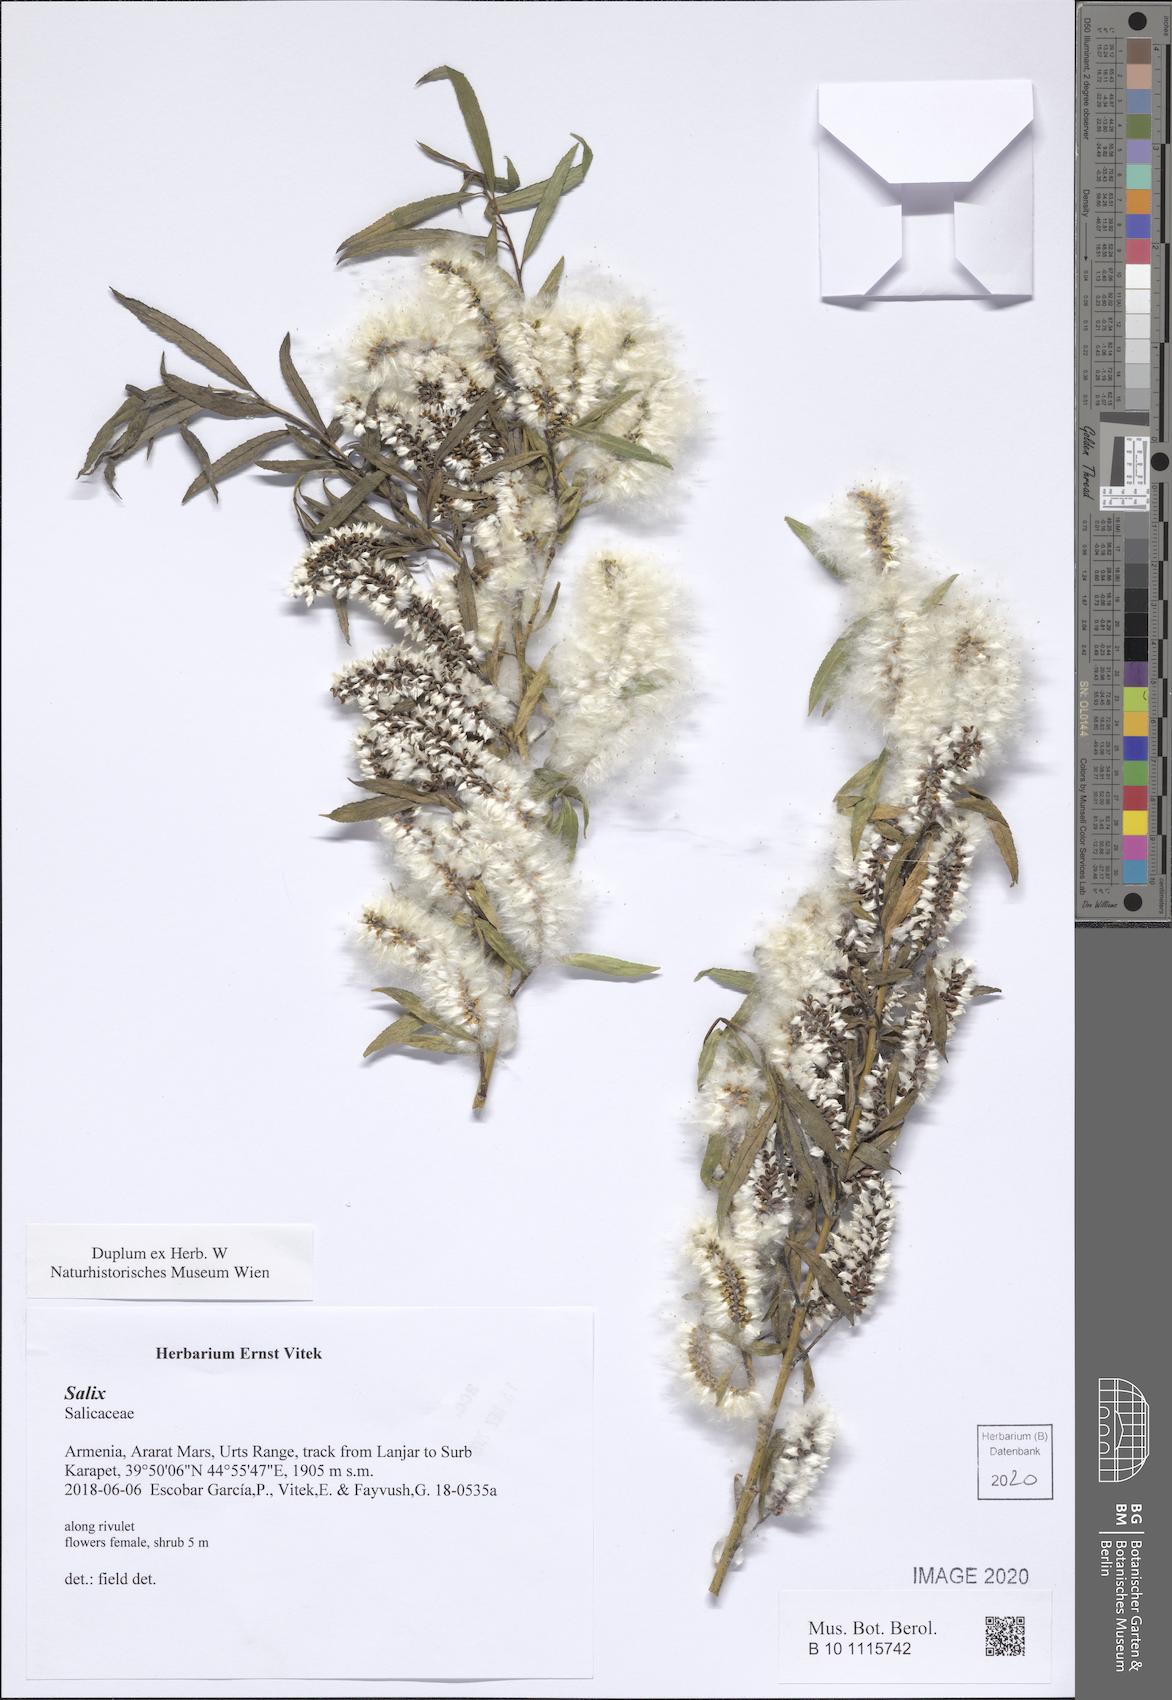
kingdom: Plantae
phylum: Tracheophyta
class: Magnoliopsida
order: Malpighiales
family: Salicaceae
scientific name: Salicaceae
